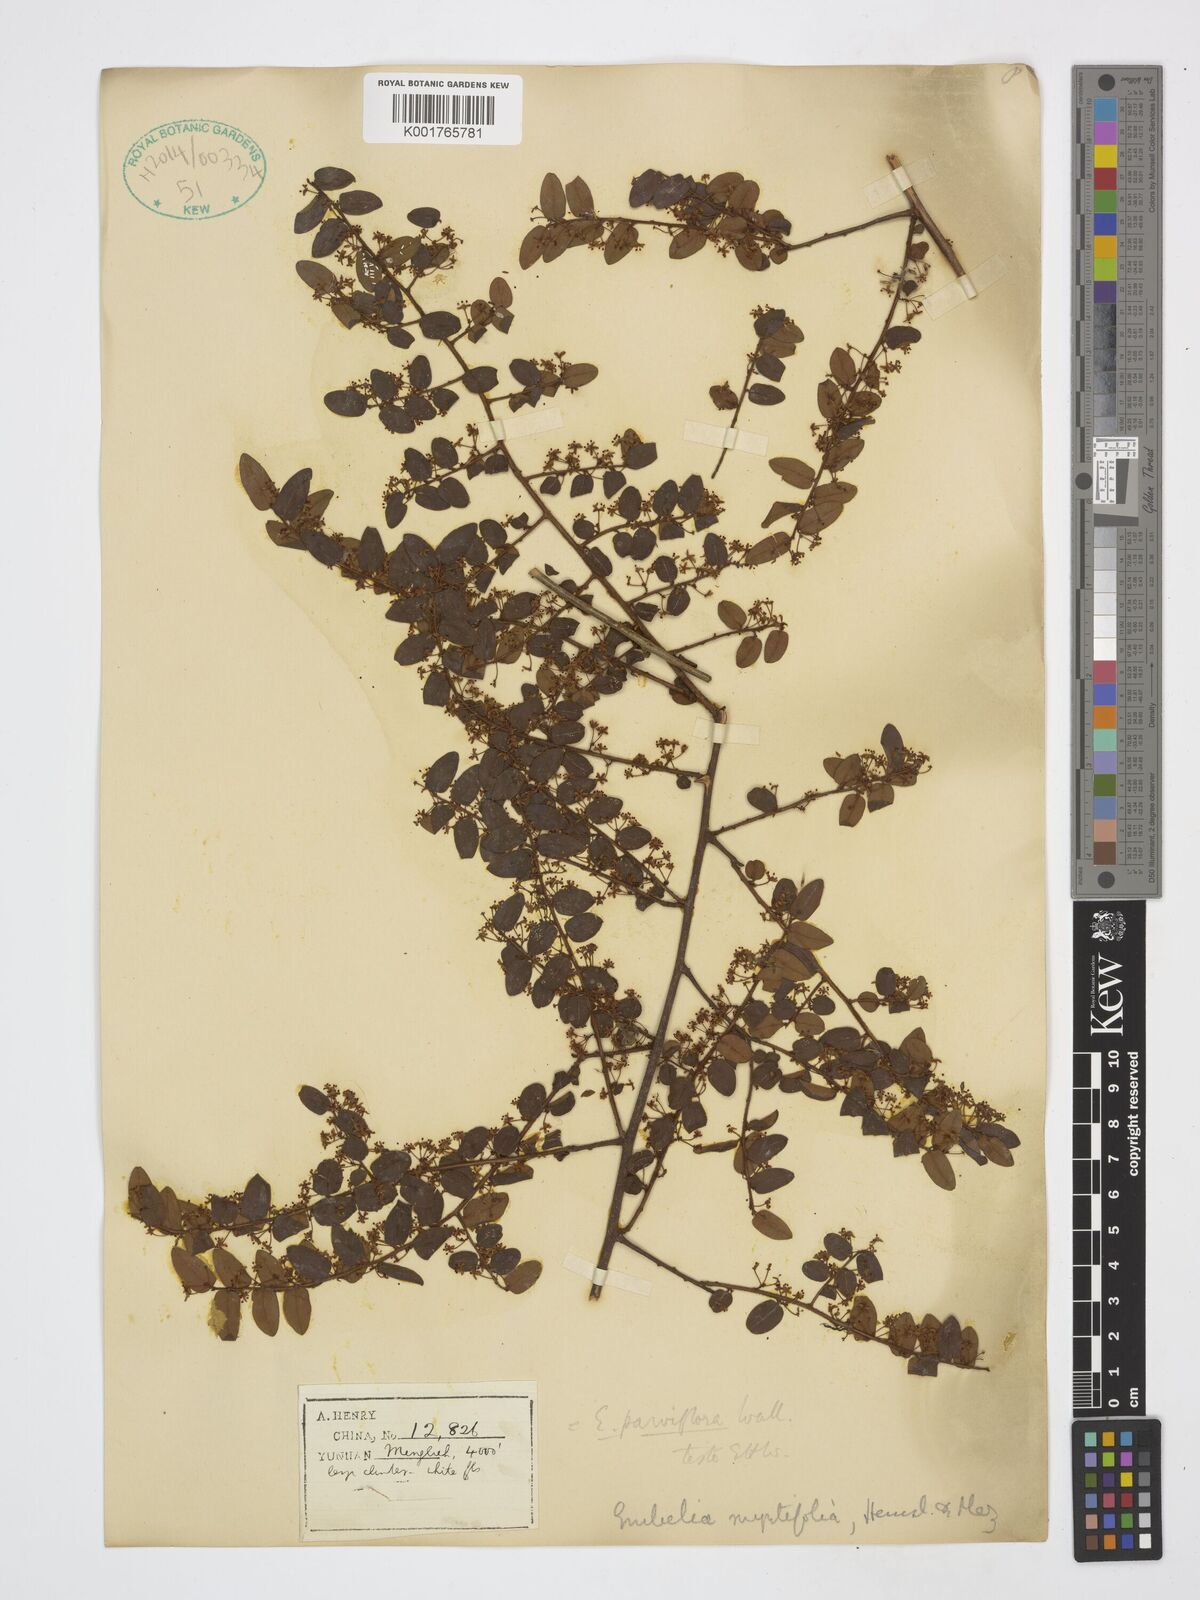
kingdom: Plantae
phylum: Tracheophyta
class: Magnoliopsida
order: Ericales
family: Primulaceae
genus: Embelia
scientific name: Embelia parviflora
